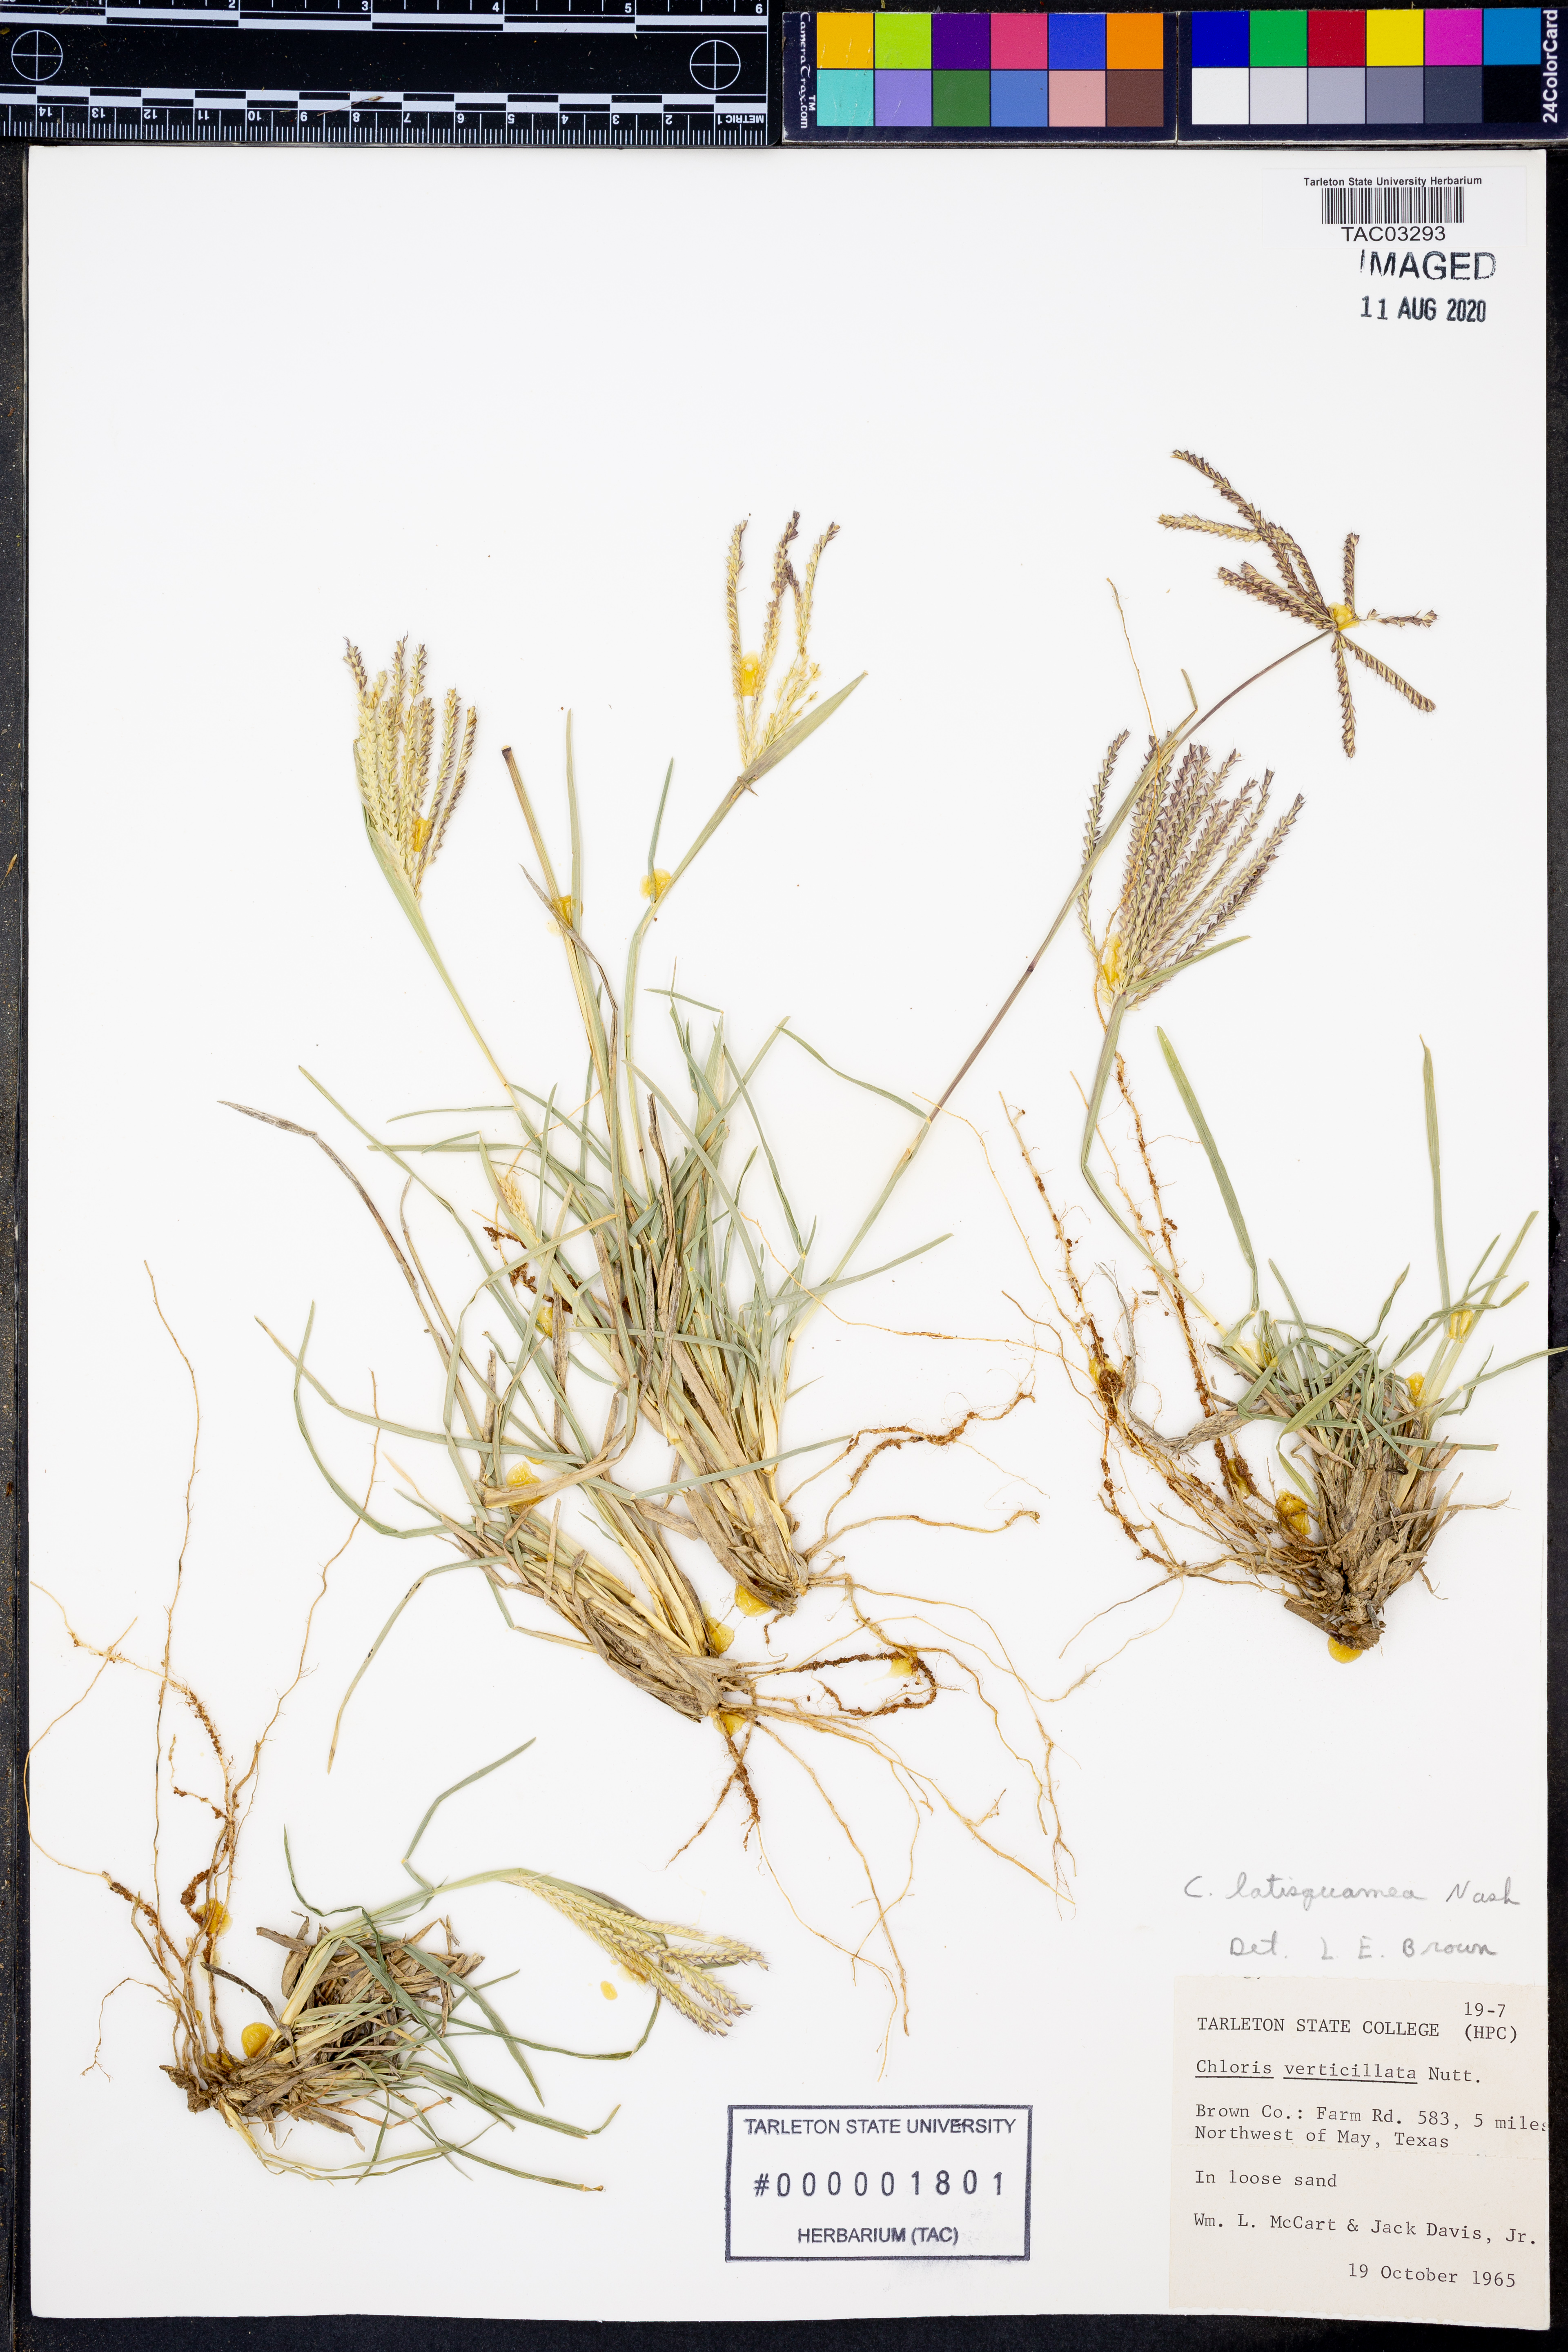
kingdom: Plantae
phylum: Tracheophyta
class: Liliopsida
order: Poales
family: Poaceae
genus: Chloris
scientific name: Chloris subdolichostachya
